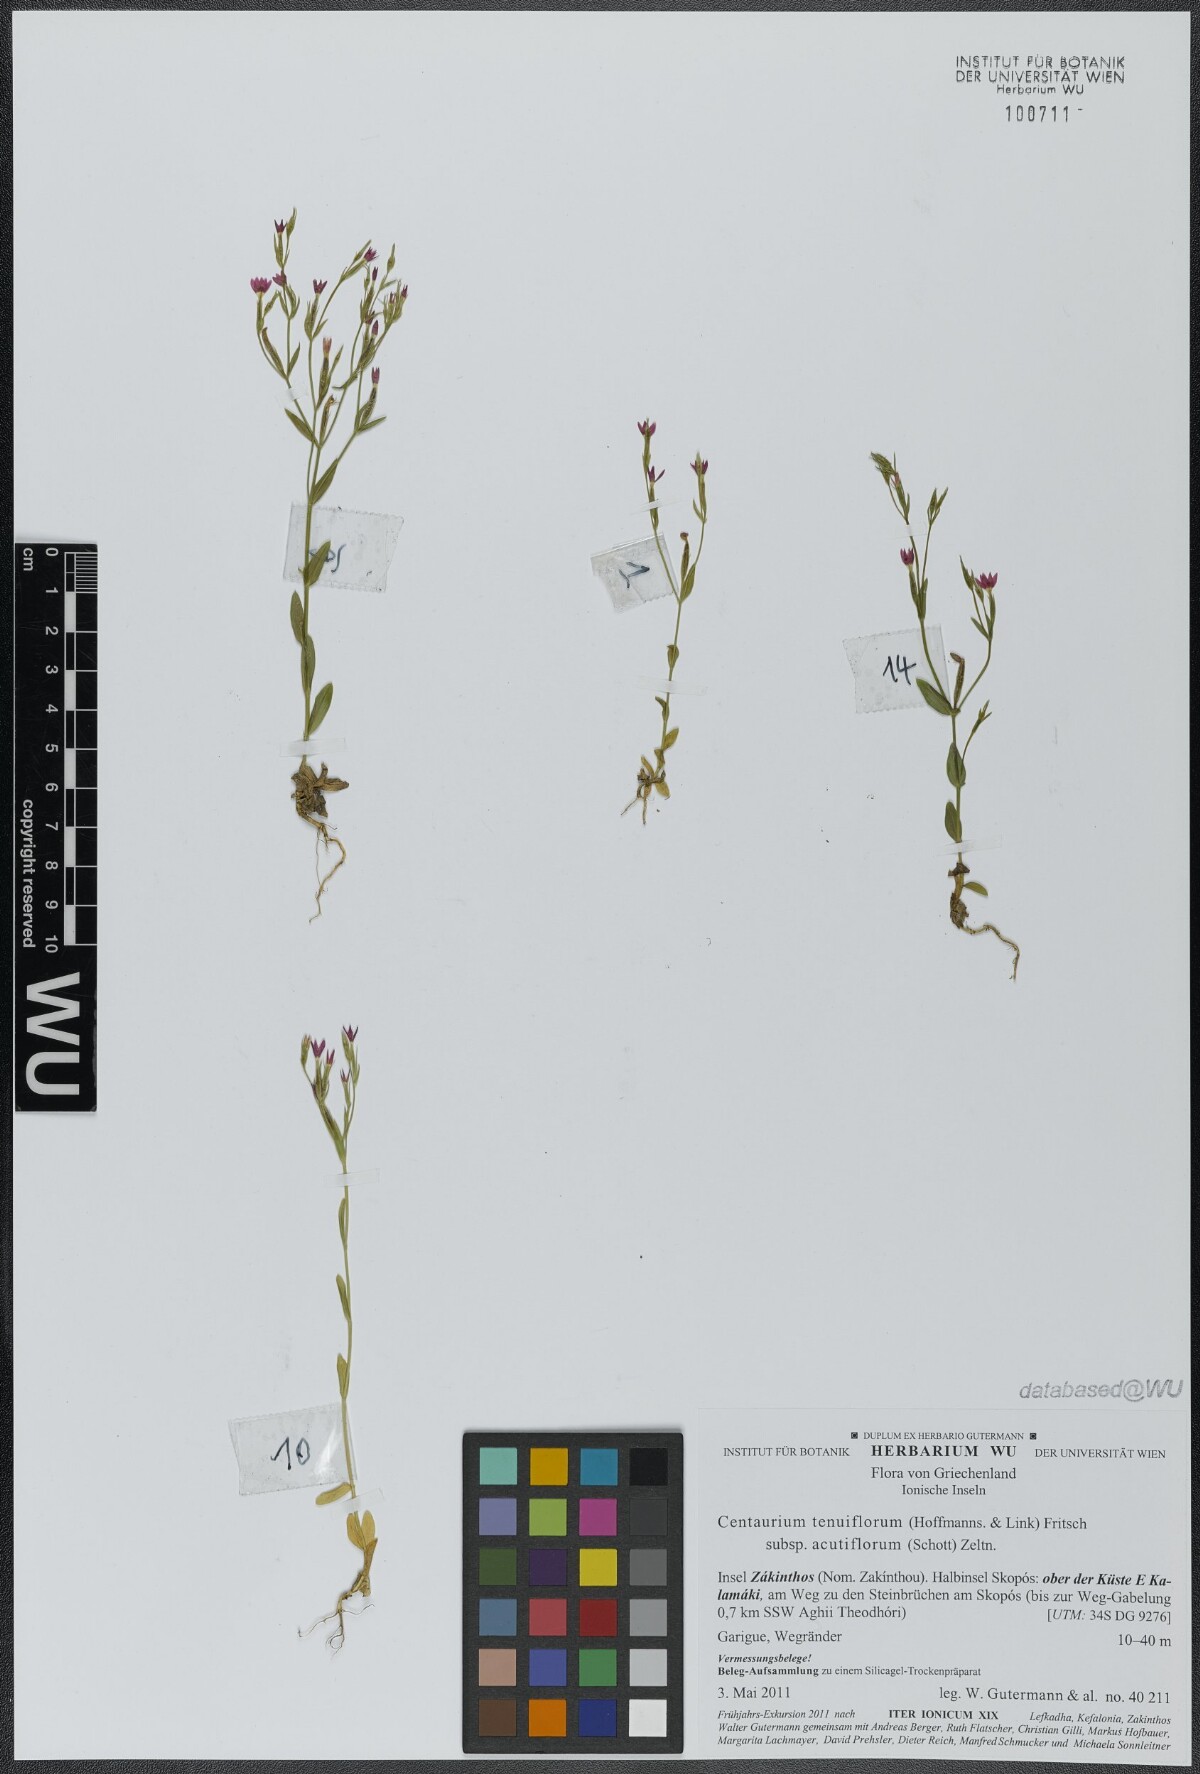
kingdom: Plantae
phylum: Tracheophyta
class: Magnoliopsida
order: Gentianales
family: Gentianaceae
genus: Centaurium
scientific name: Centaurium tenuiflorum
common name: Slender centaury
